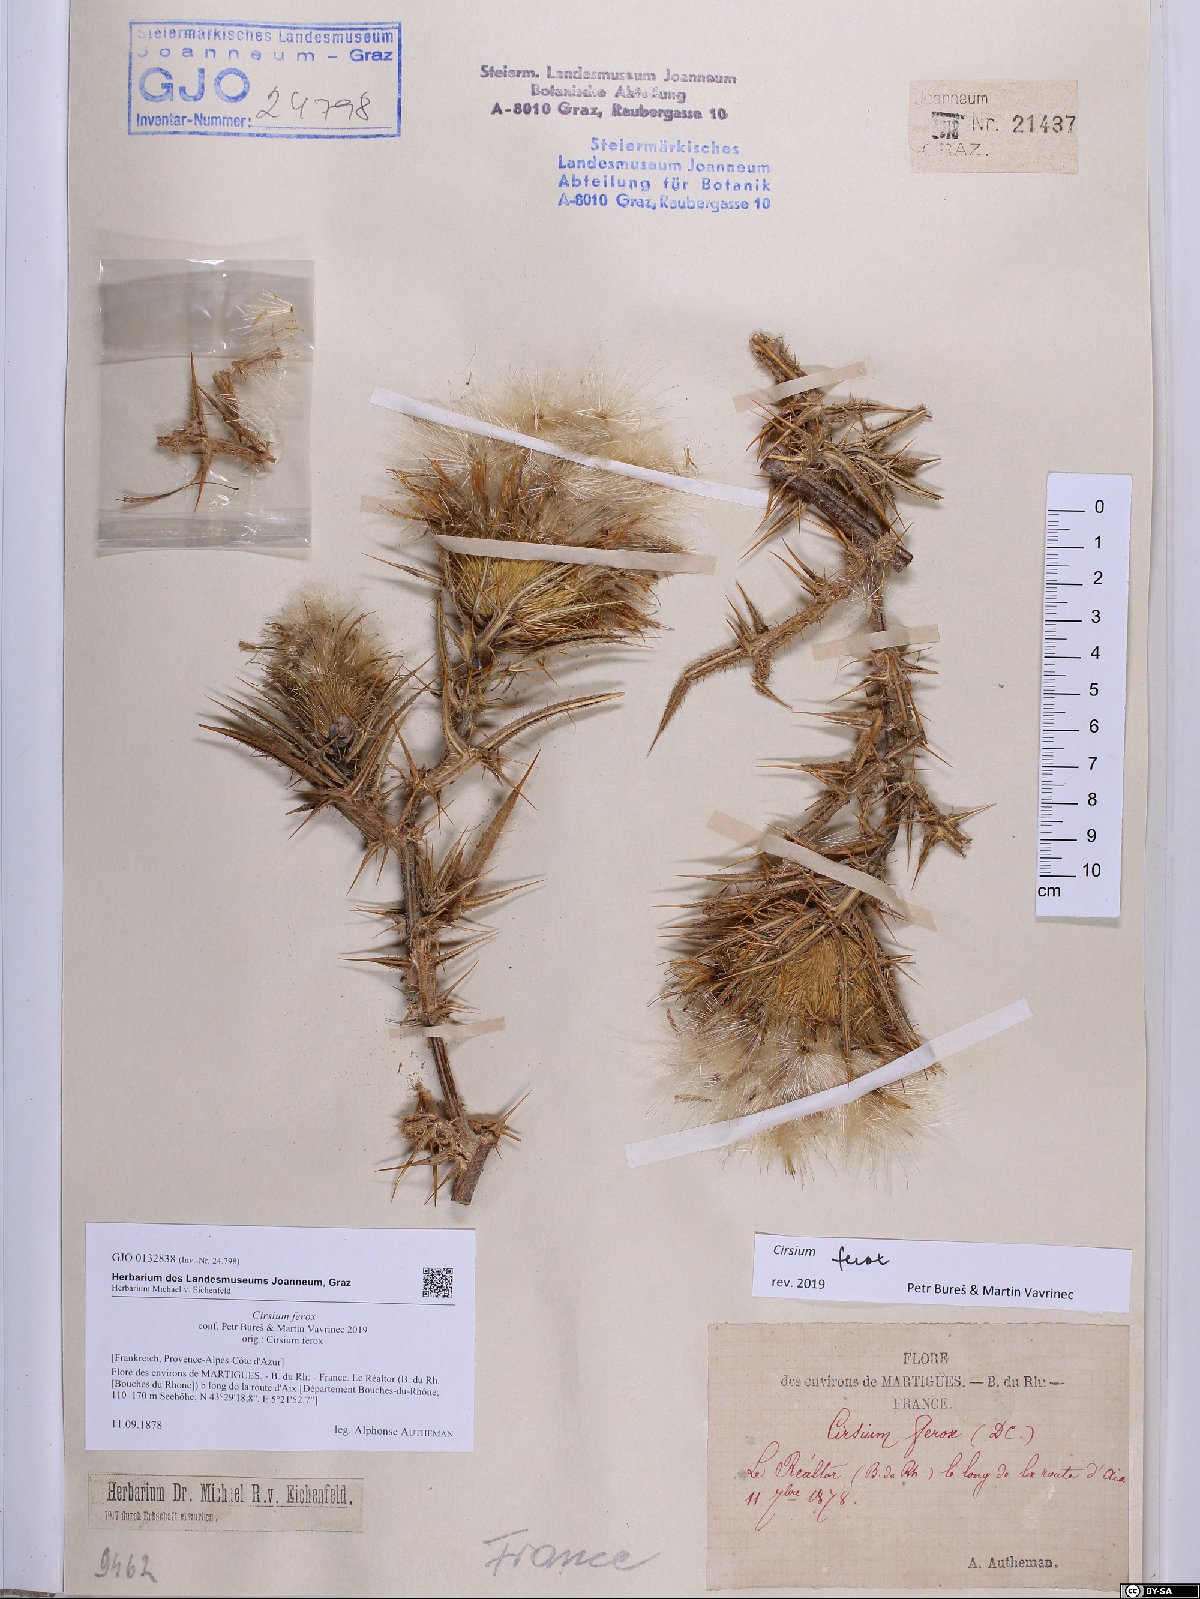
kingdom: Plantae
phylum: Tracheophyta
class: Magnoliopsida
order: Asterales
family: Asteraceae
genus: Lophiolepis
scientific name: Lophiolepis ferox
